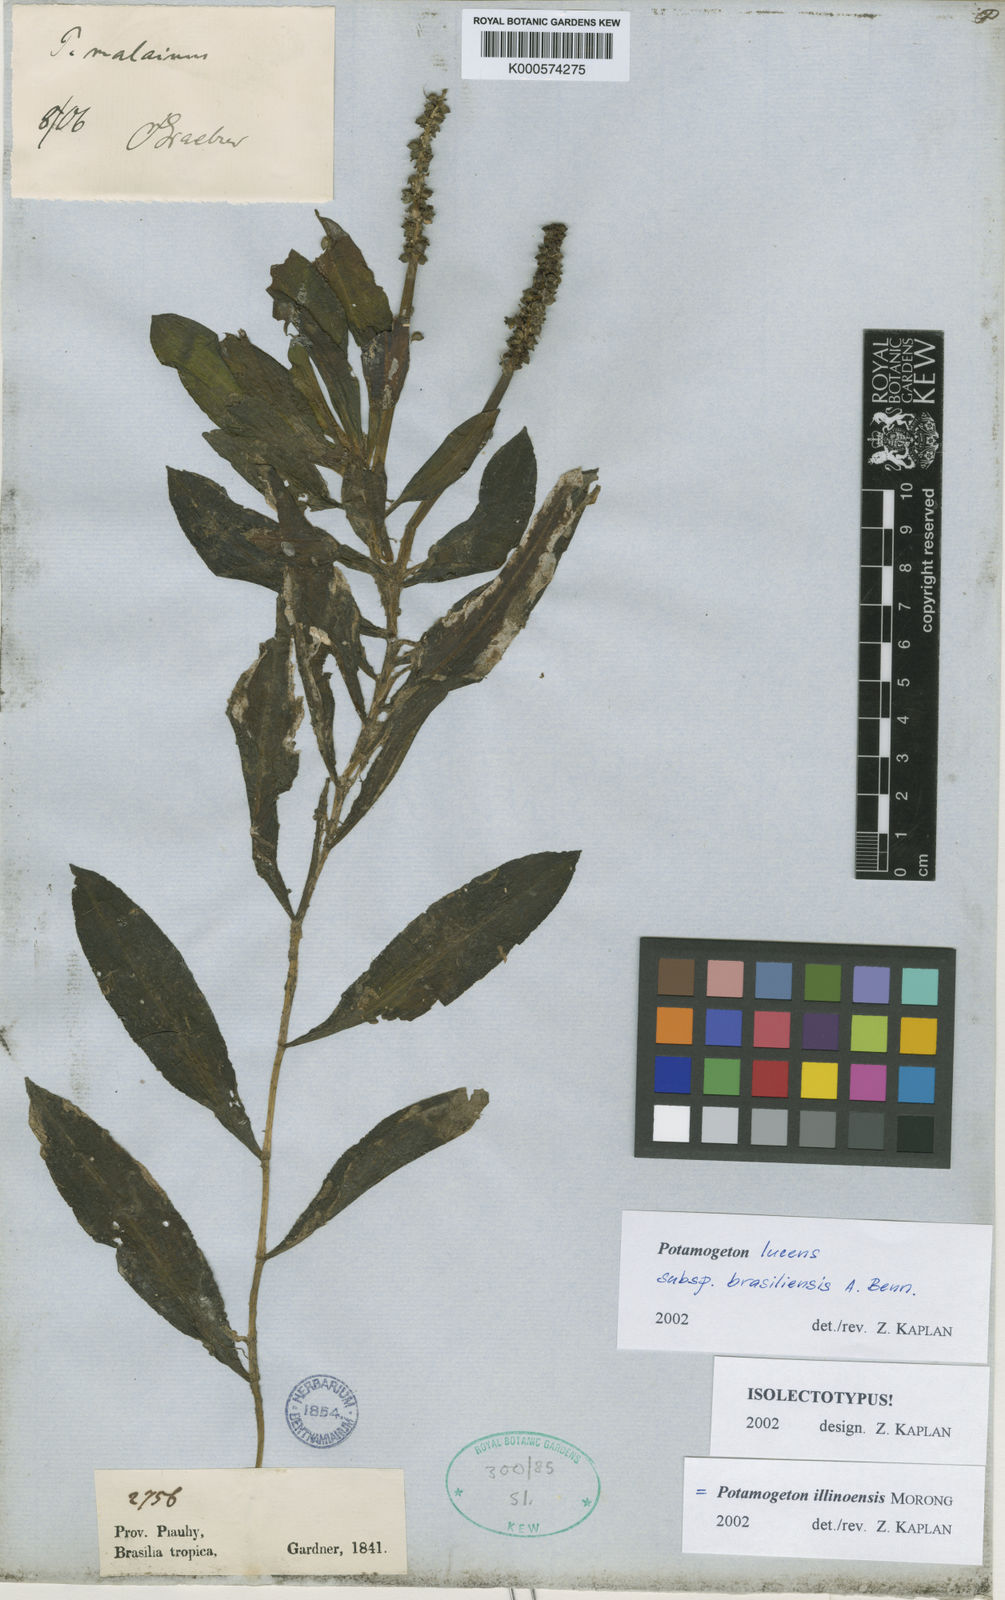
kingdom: Plantae
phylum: Tracheophyta
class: Liliopsida
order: Alismatales
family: Potamogetonaceae
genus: Potamogeton
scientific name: Potamogeton illinoensis
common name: Illinois pondweed
